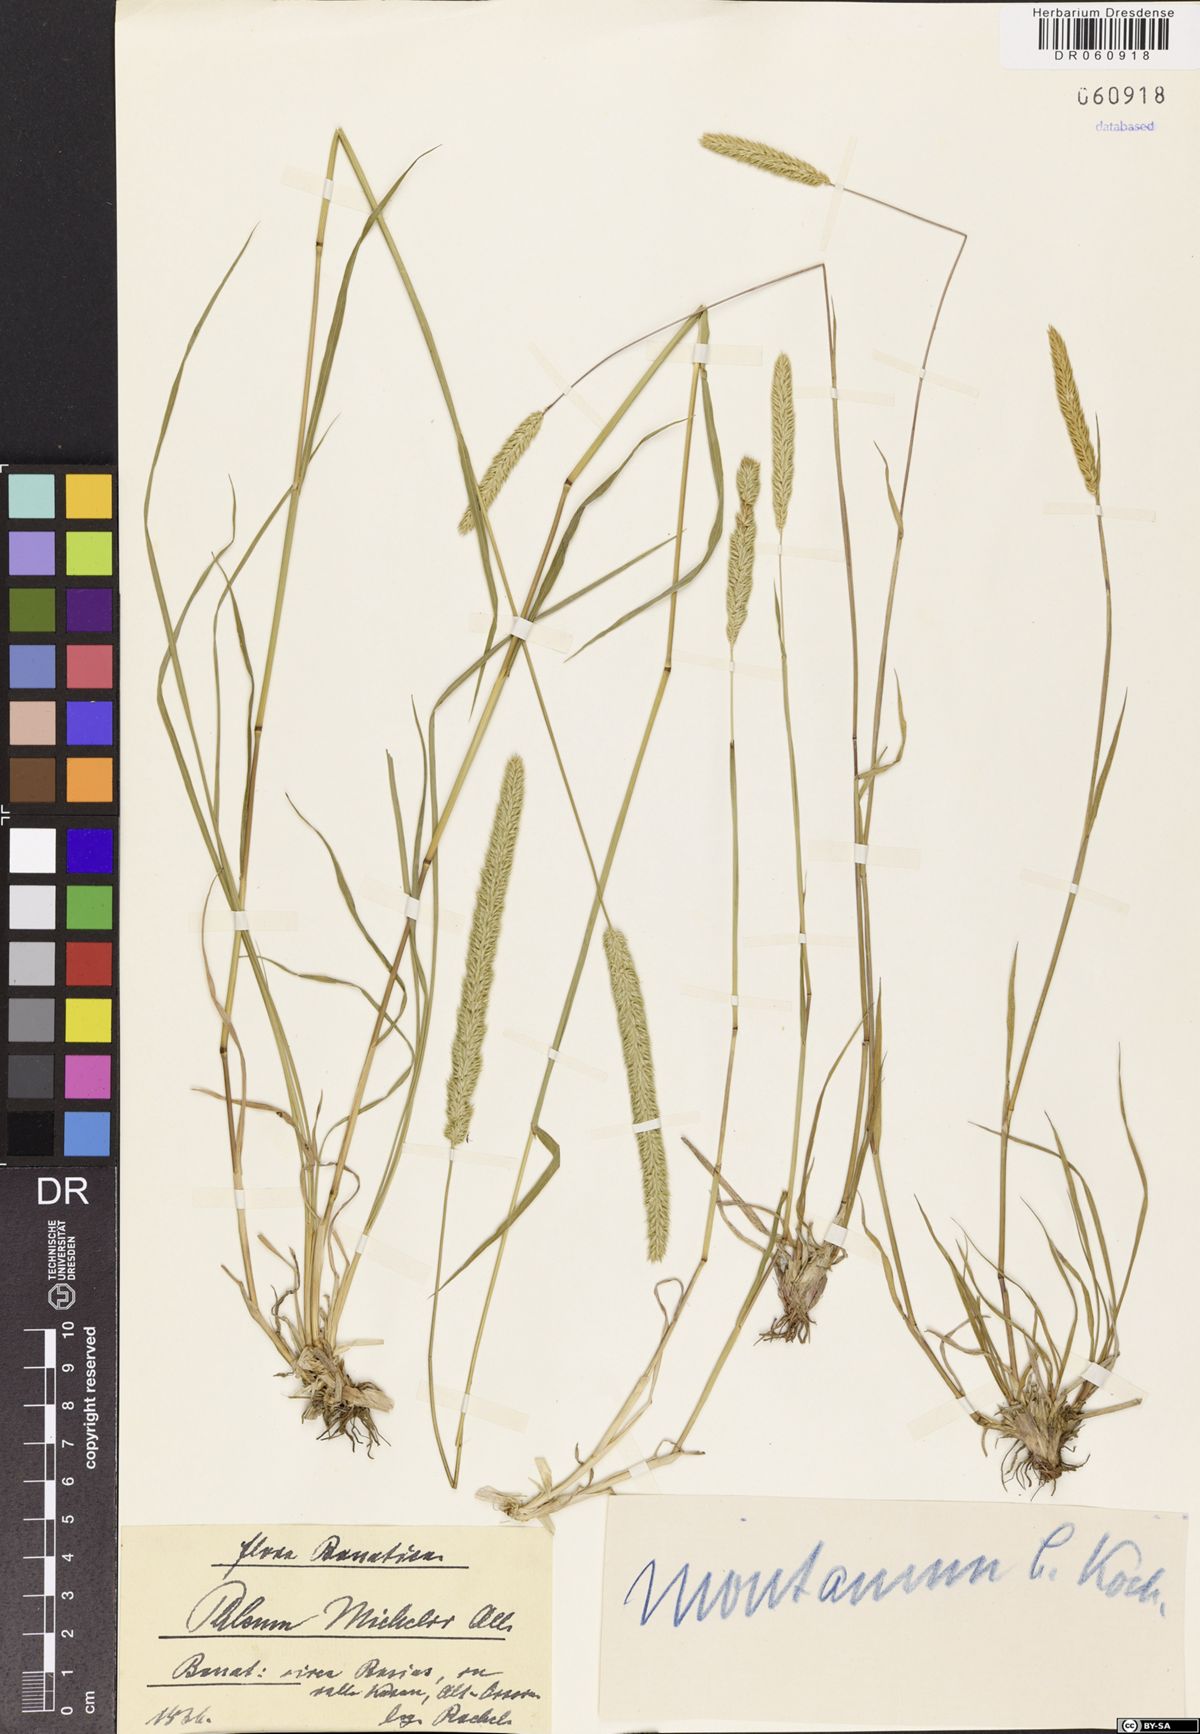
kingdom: Plantae
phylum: Tracheophyta
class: Liliopsida
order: Poales
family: Poaceae
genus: Phleum
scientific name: Phleum montanum
